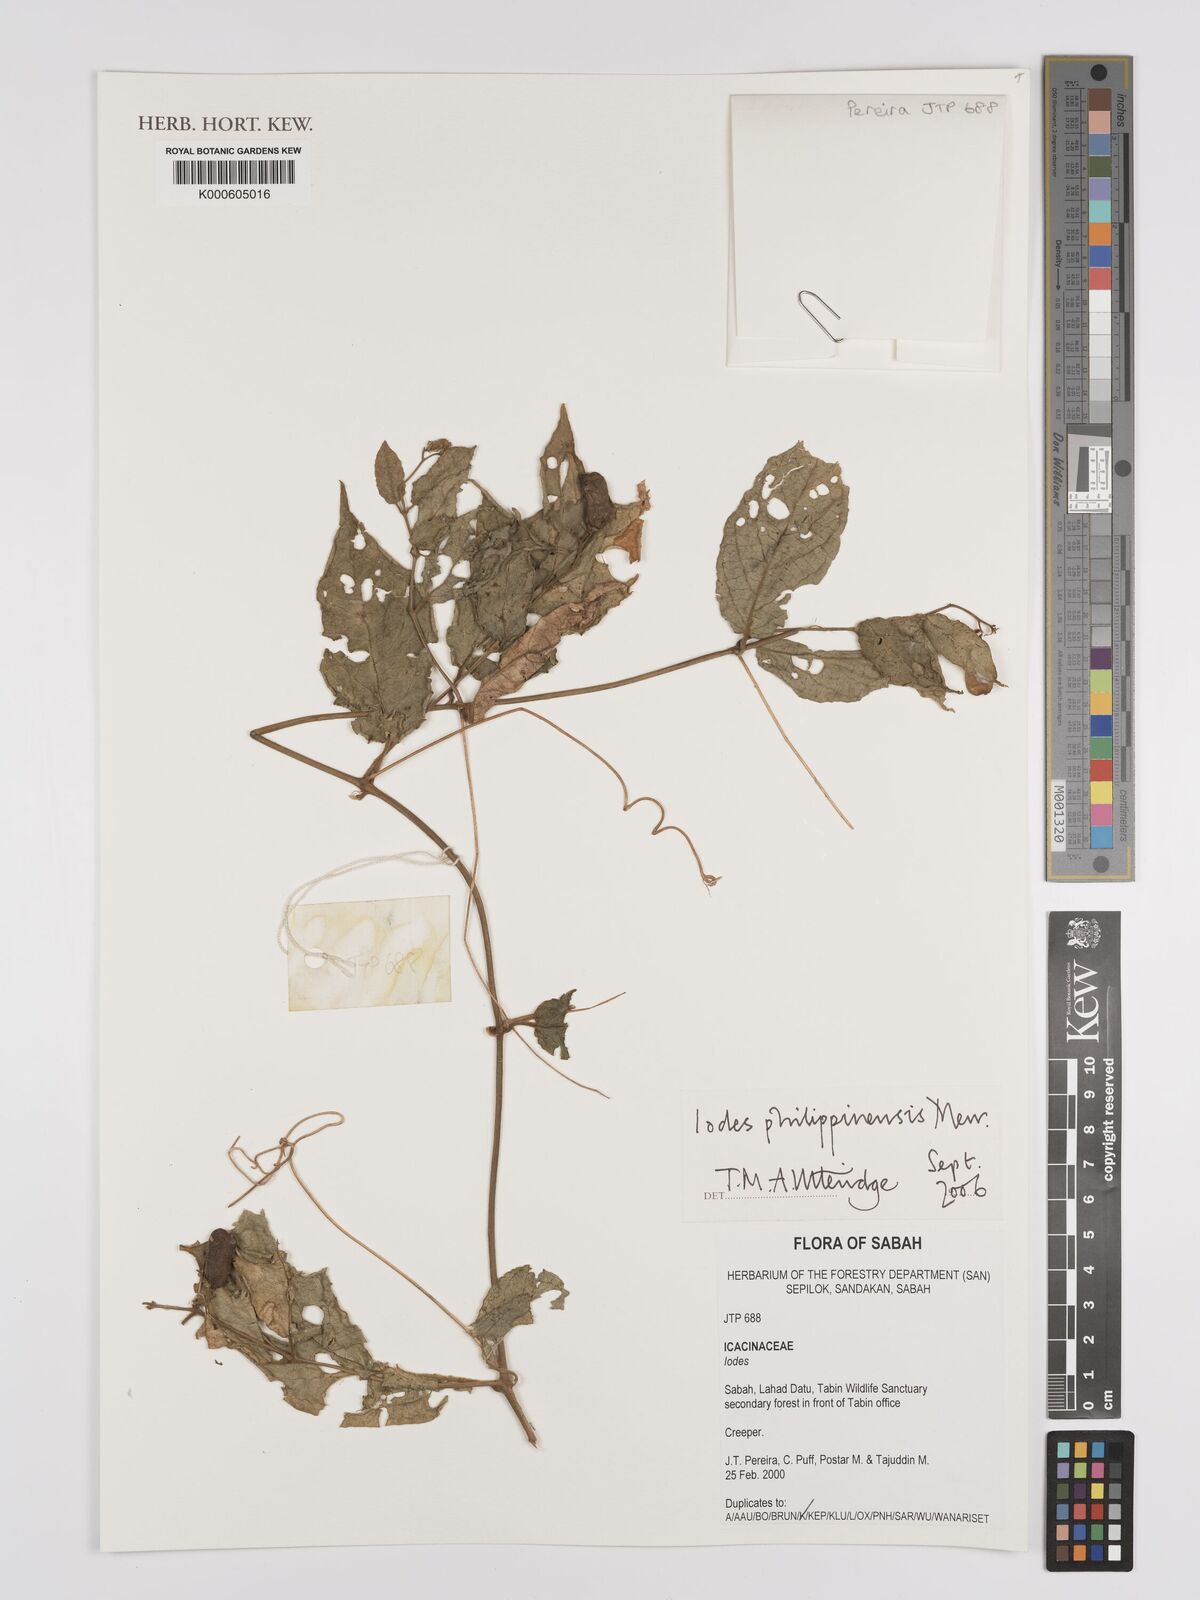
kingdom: Plantae
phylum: Tracheophyta
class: Magnoliopsida
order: Icacinales
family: Icacinaceae
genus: Iodes
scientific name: Iodes philippinensis
